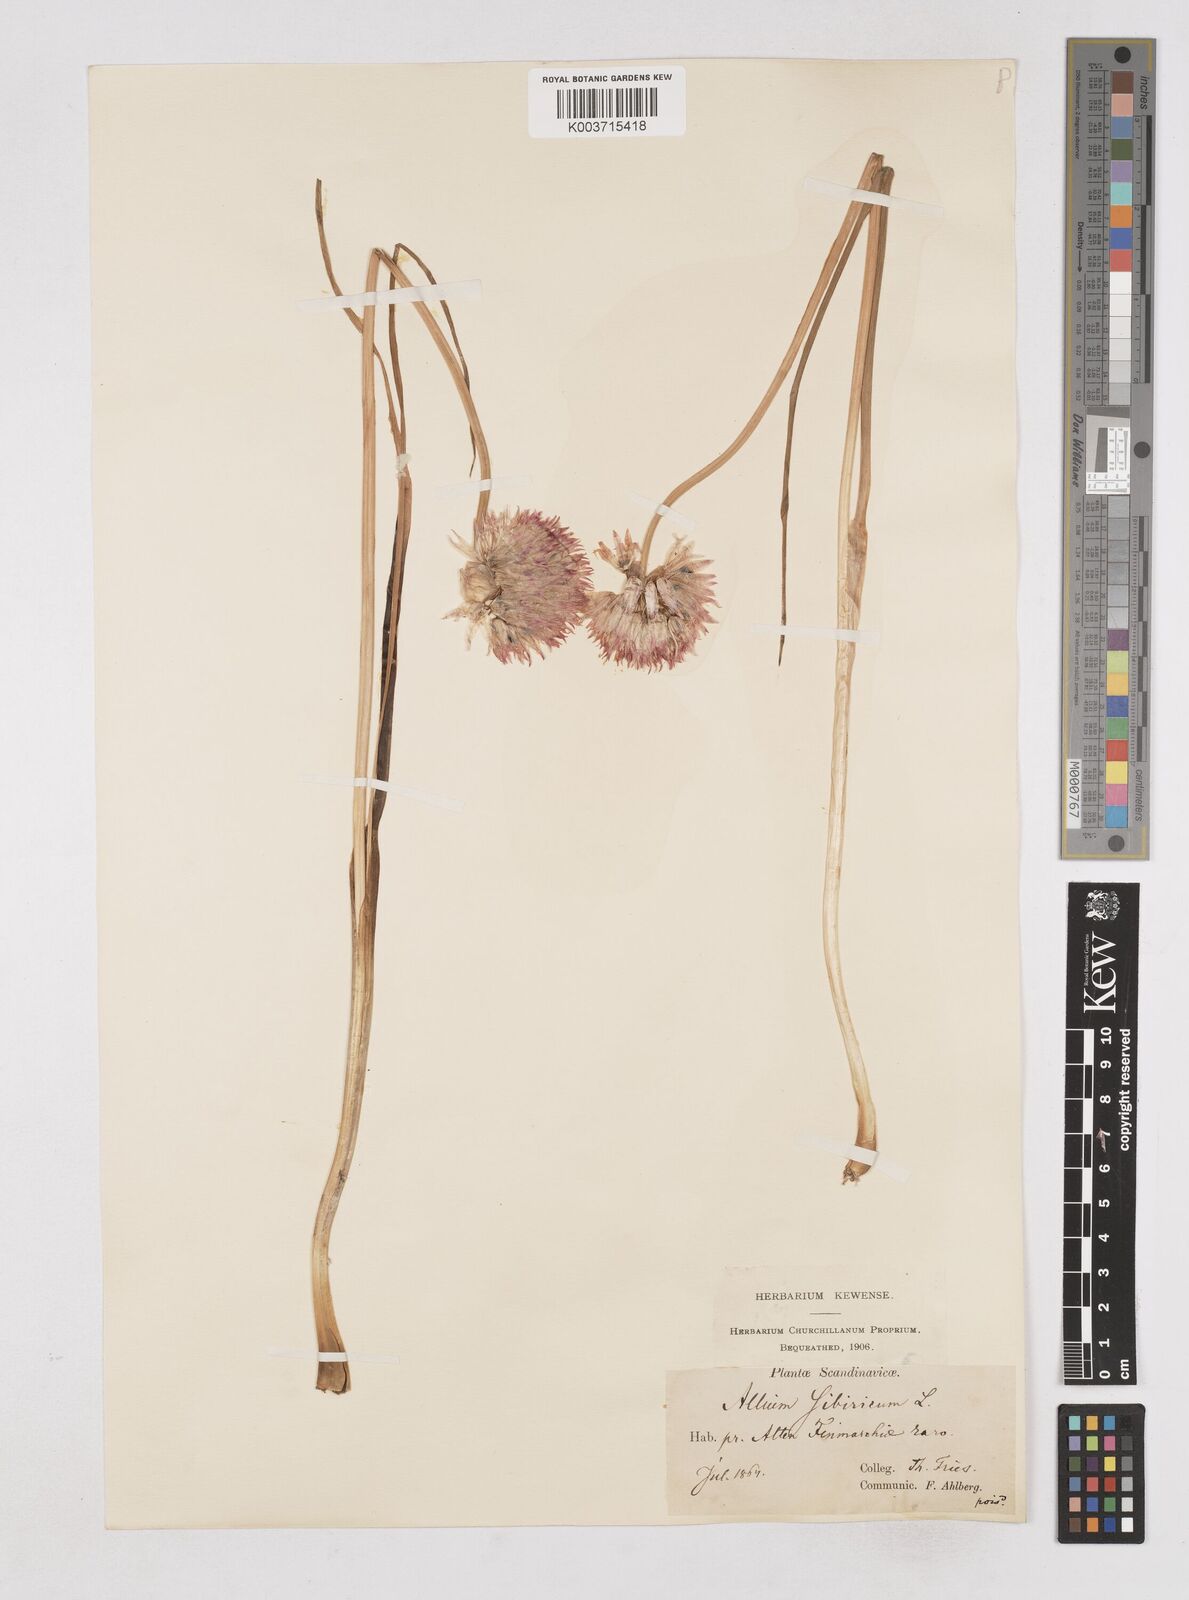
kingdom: Plantae
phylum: Tracheophyta
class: Liliopsida
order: Asparagales
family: Amaryllidaceae
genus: Allium
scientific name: Allium schoenoprasum
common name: Chives
